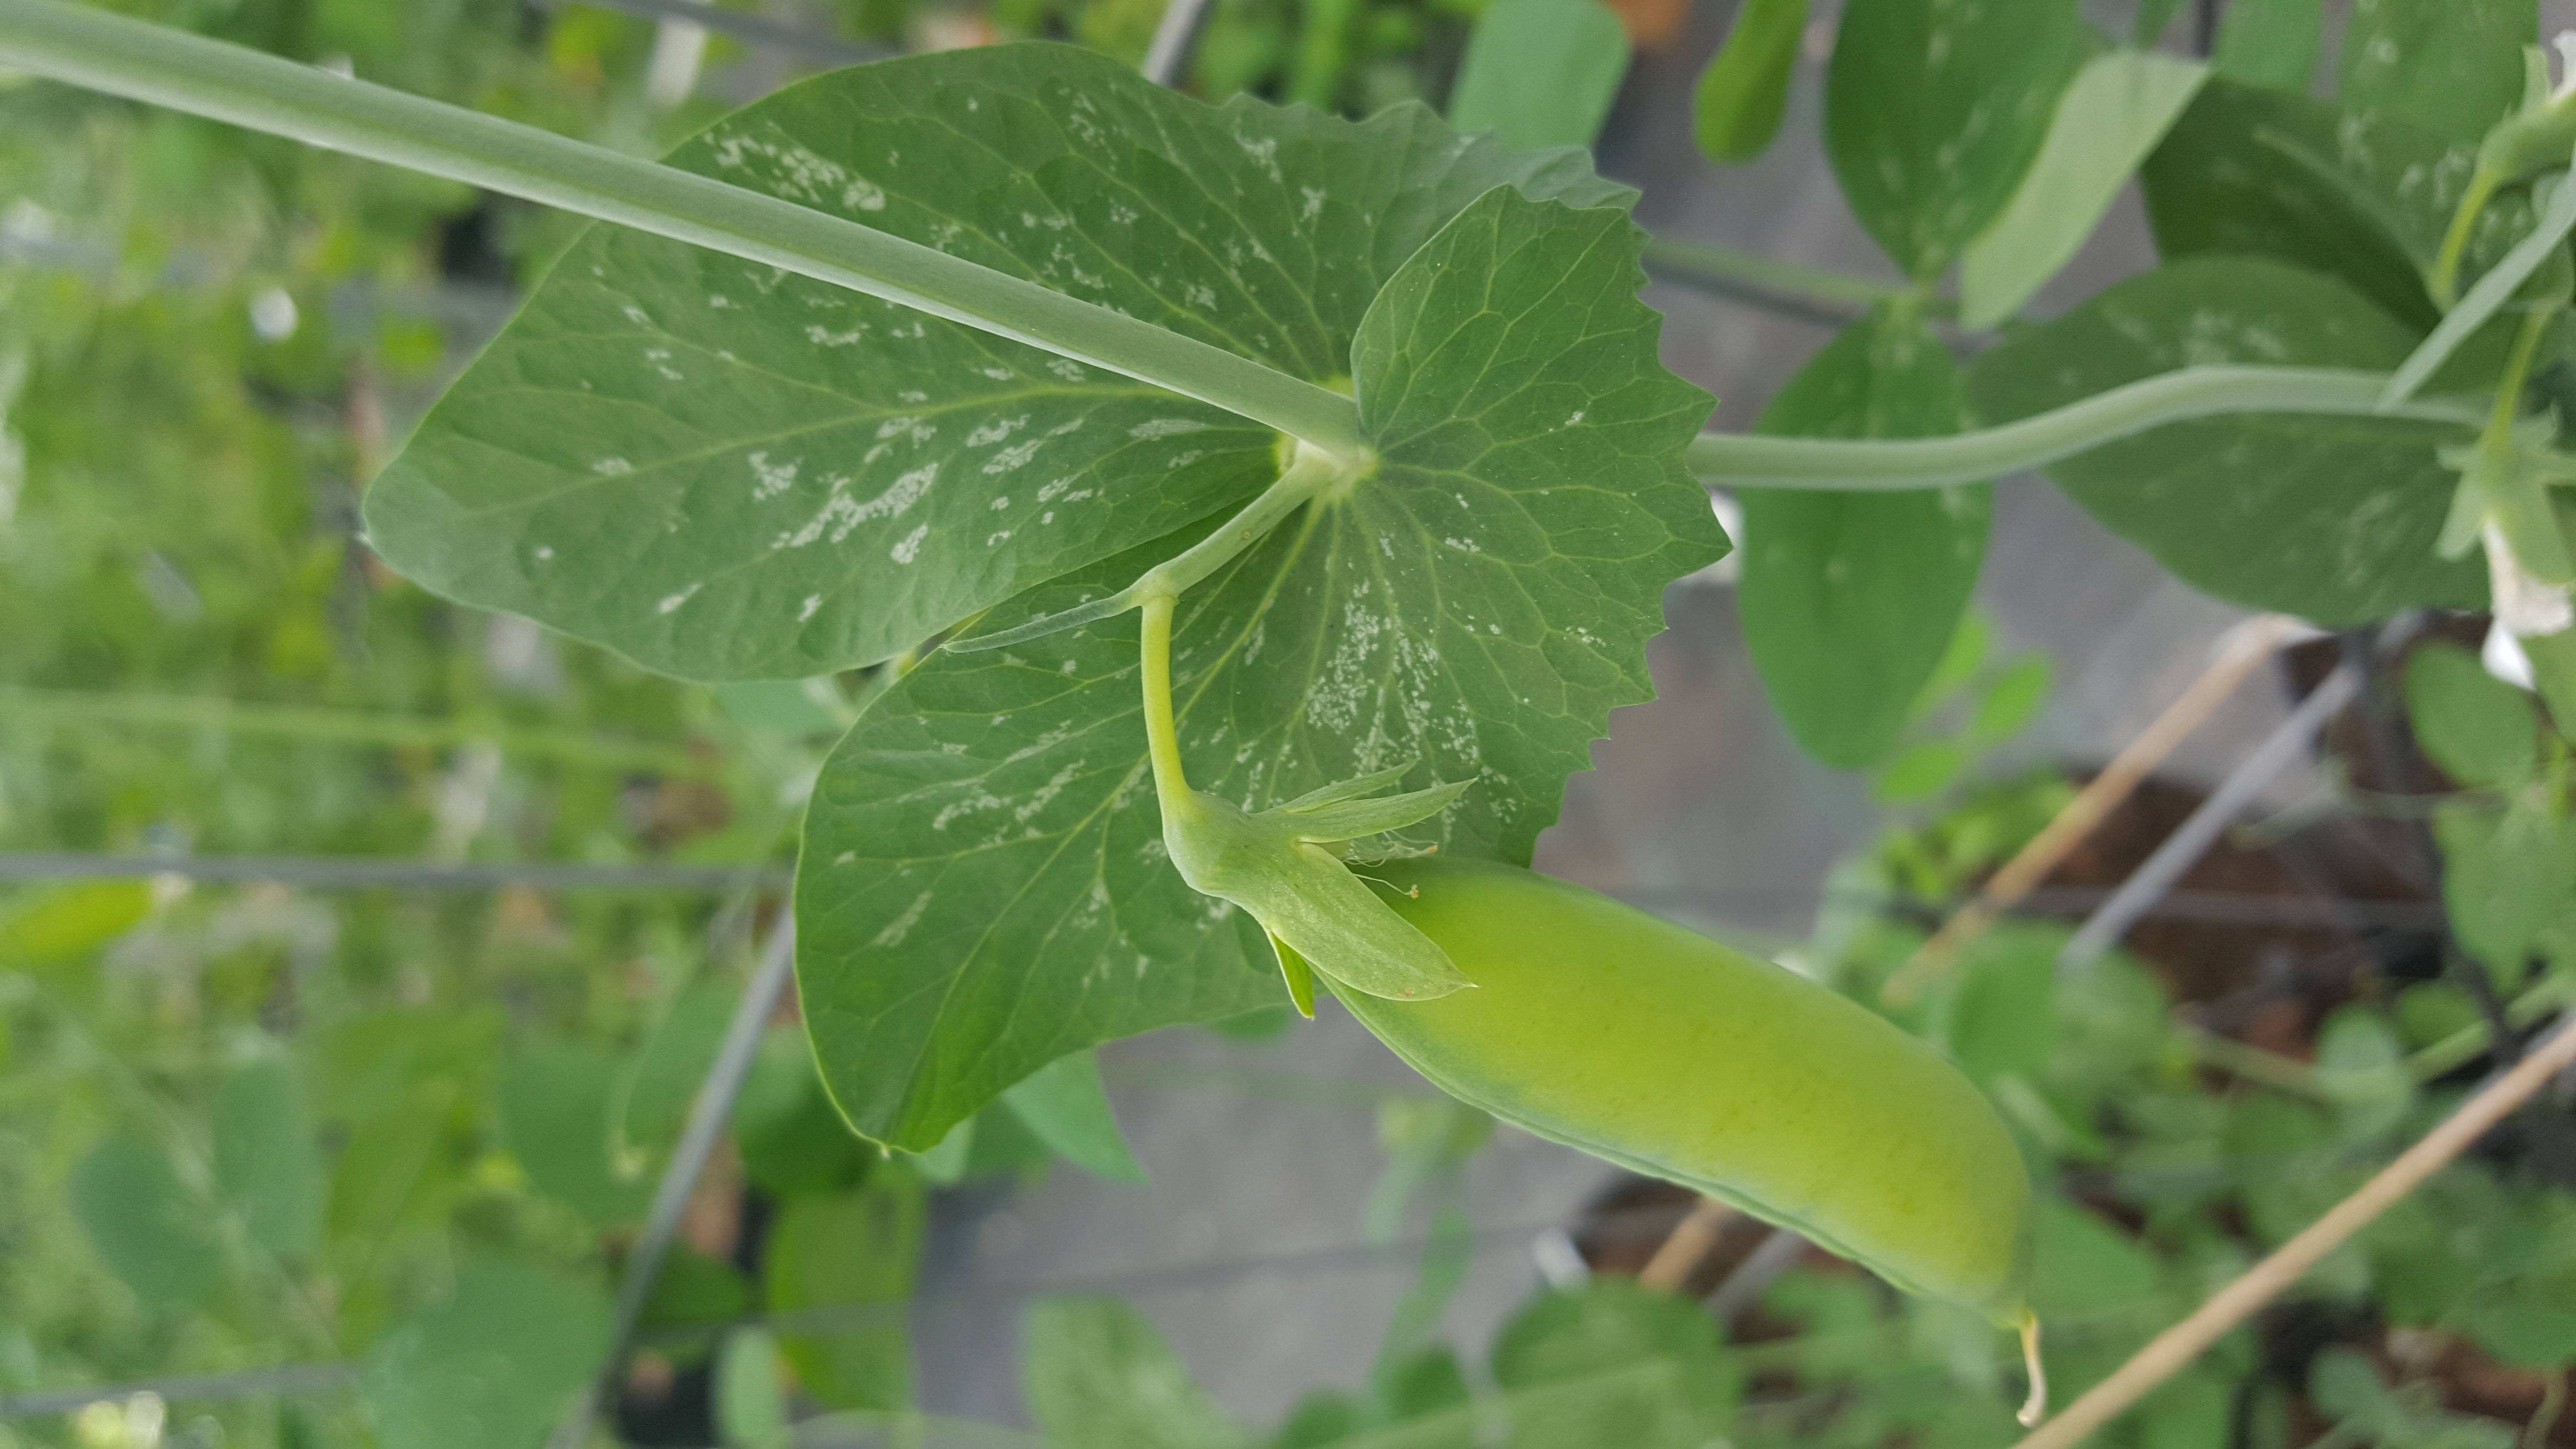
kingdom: Plantae
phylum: Tracheophyta
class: Magnoliopsida
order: Fabales
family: Fabaceae
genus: Lathyrus
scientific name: Lathyrus oleraceus
